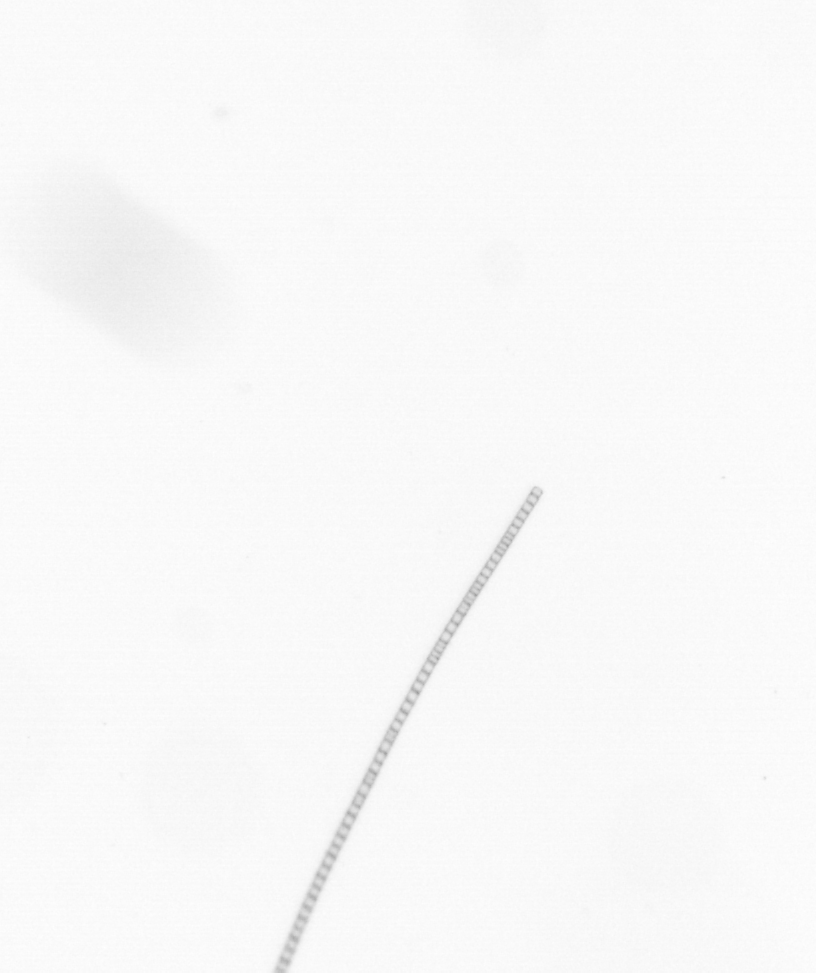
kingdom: Chromista
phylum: Ochrophyta
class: Bacillariophyceae
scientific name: Bacillariophyceae
